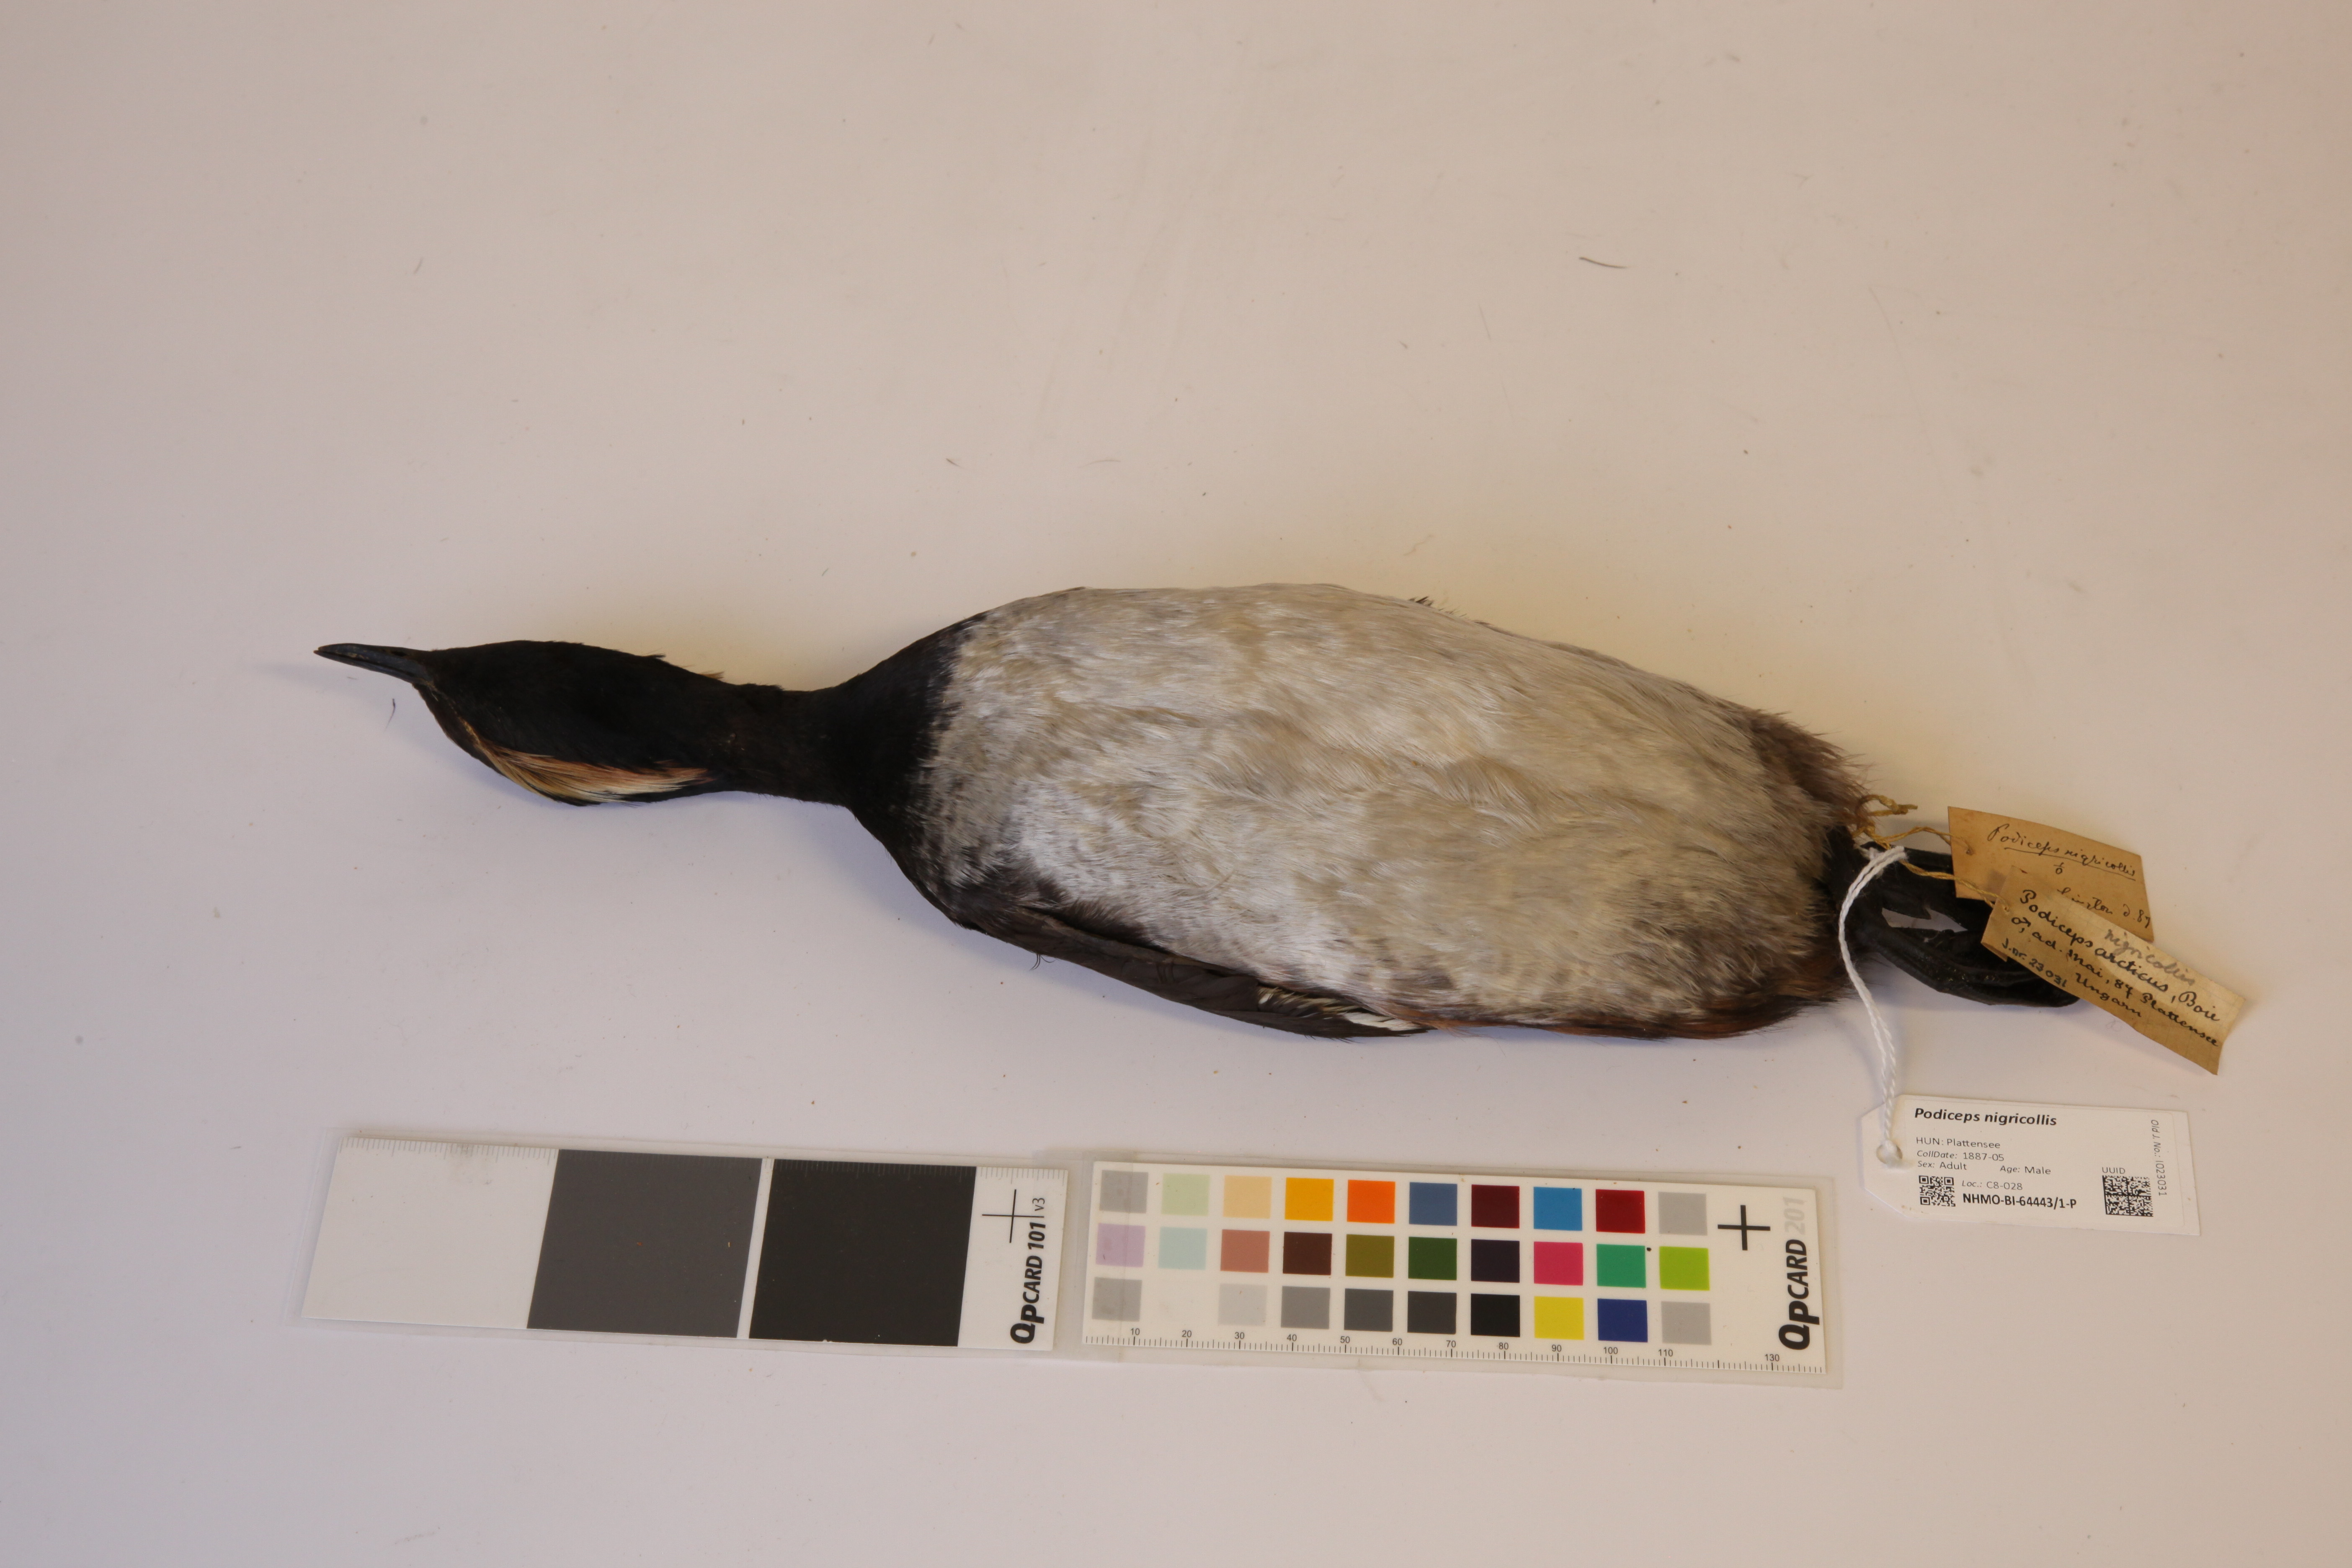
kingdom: Animalia
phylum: Chordata
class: Aves
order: Podicipediformes
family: Podicipedidae
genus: Podiceps
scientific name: Podiceps nigricollis
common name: Black-necked grebe
